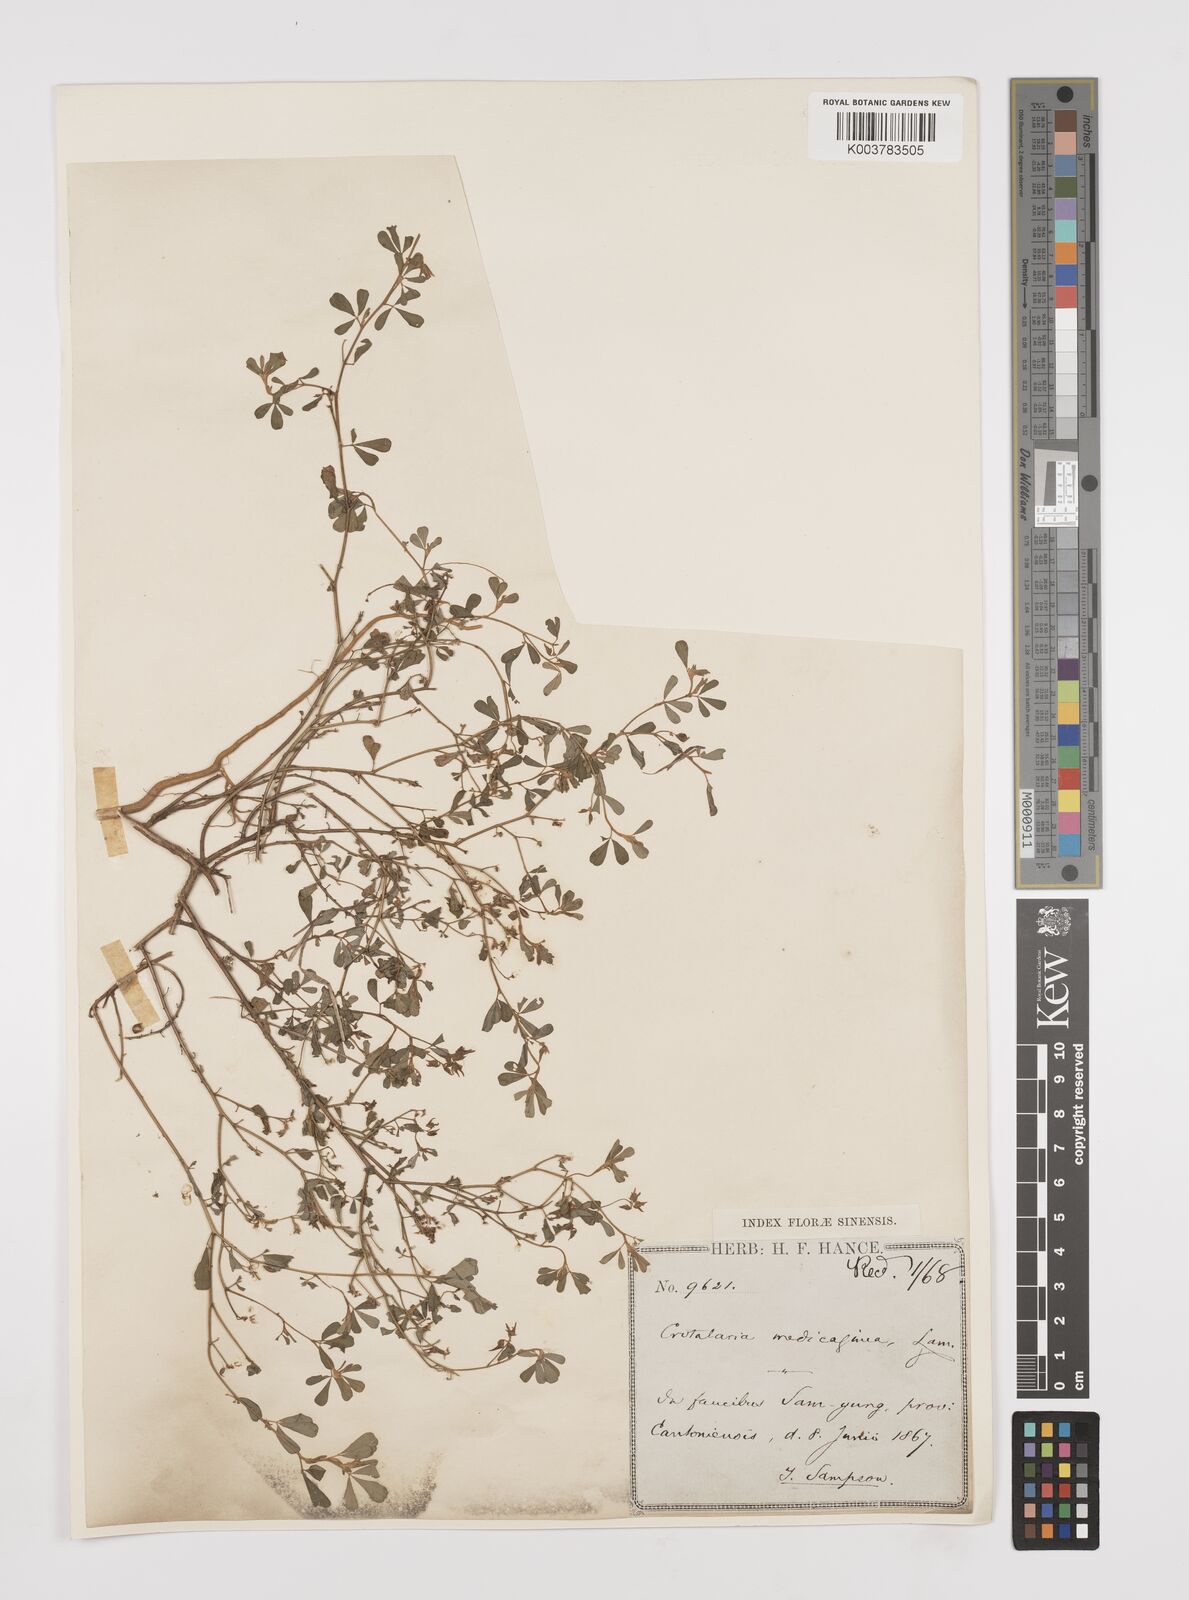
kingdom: Plantae
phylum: Tracheophyta
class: Magnoliopsida
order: Fabales
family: Fabaceae
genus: Crotalaria
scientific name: Crotalaria medicaginea
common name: Trefoil rattlepod
